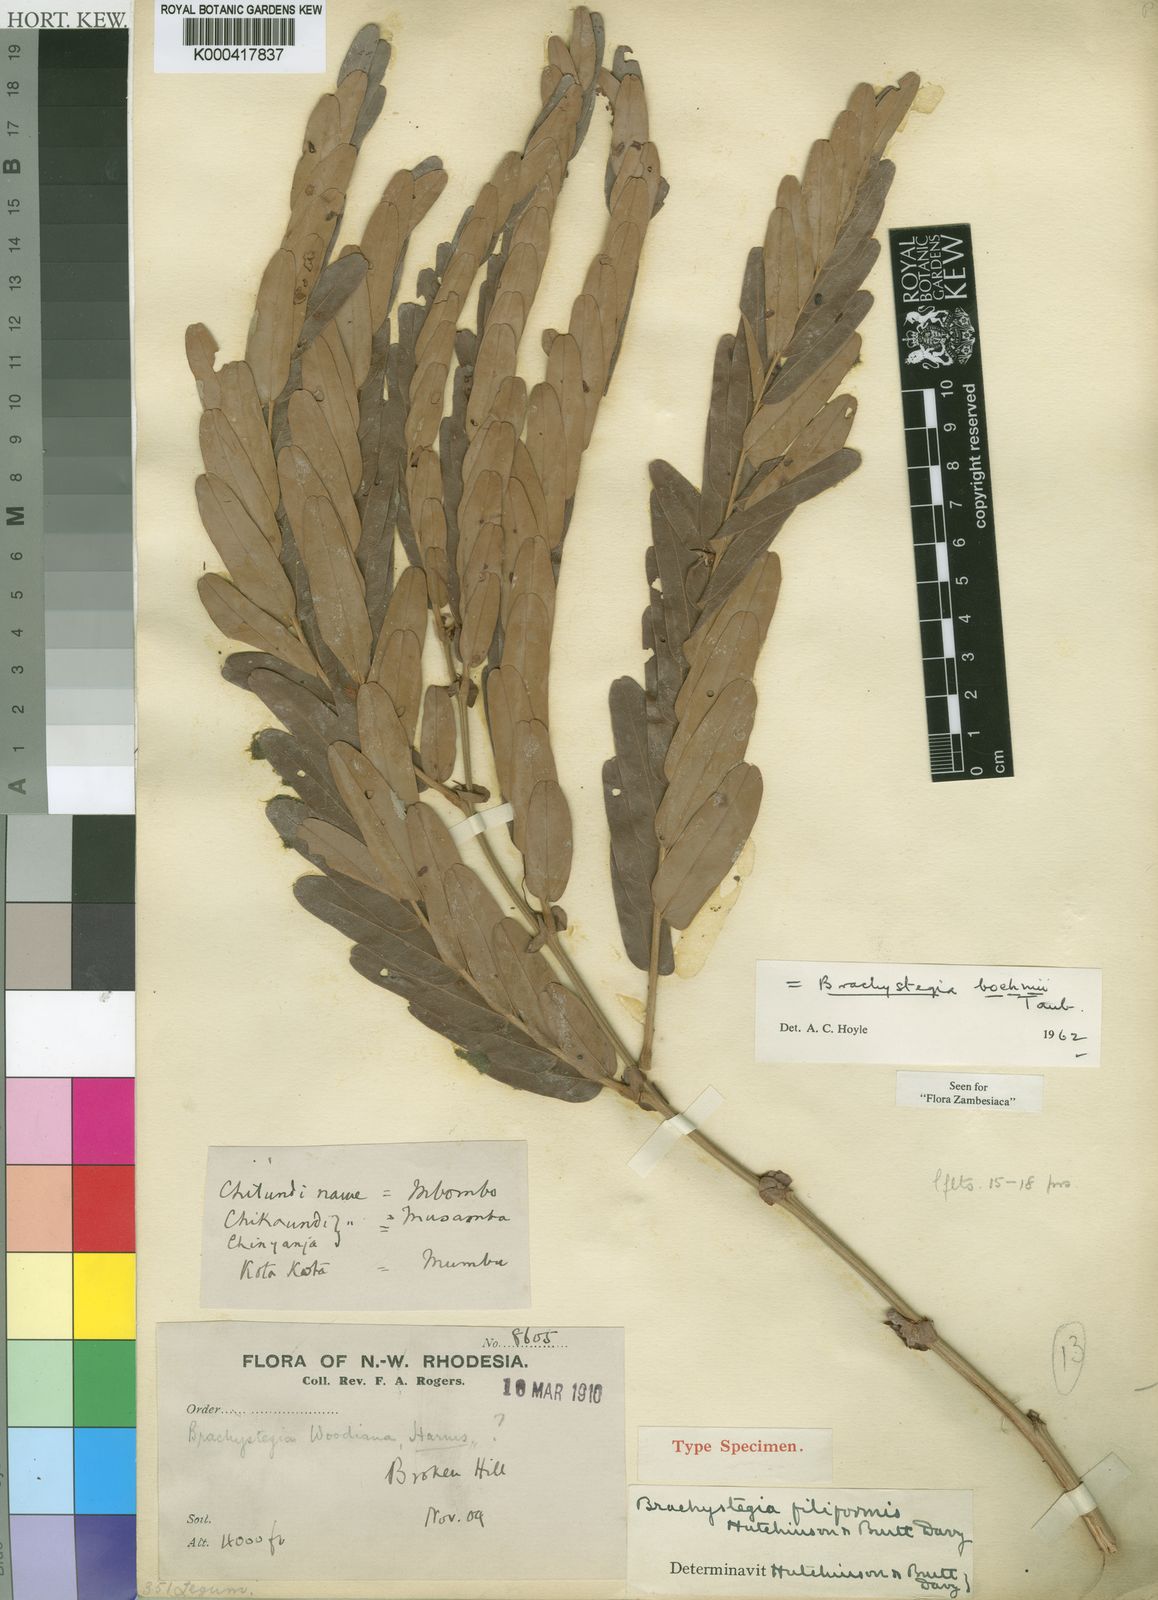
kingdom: Plantae
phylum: Tracheophyta
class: Magnoliopsida
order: Fabales
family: Fabaceae
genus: Brachystegia
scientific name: Brachystegia boehmii
